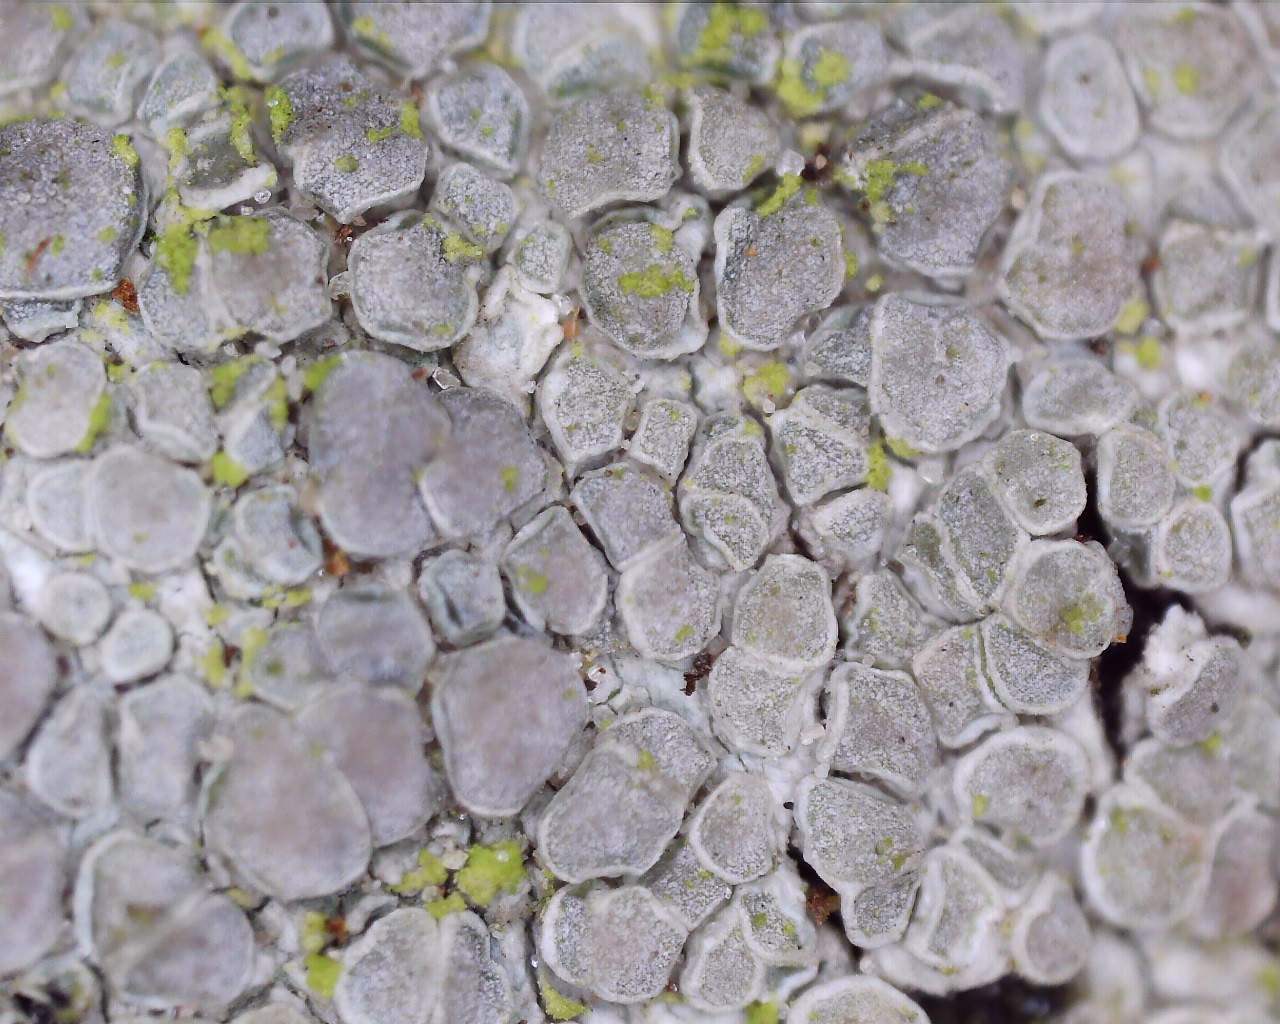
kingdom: Fungi
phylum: Ascomycota
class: Lecanoromycetes
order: Lecanorales
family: Lecanoraceae
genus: Glaucomaria
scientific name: Glaucomaria carpinea
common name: hviddugget kantskivelav
